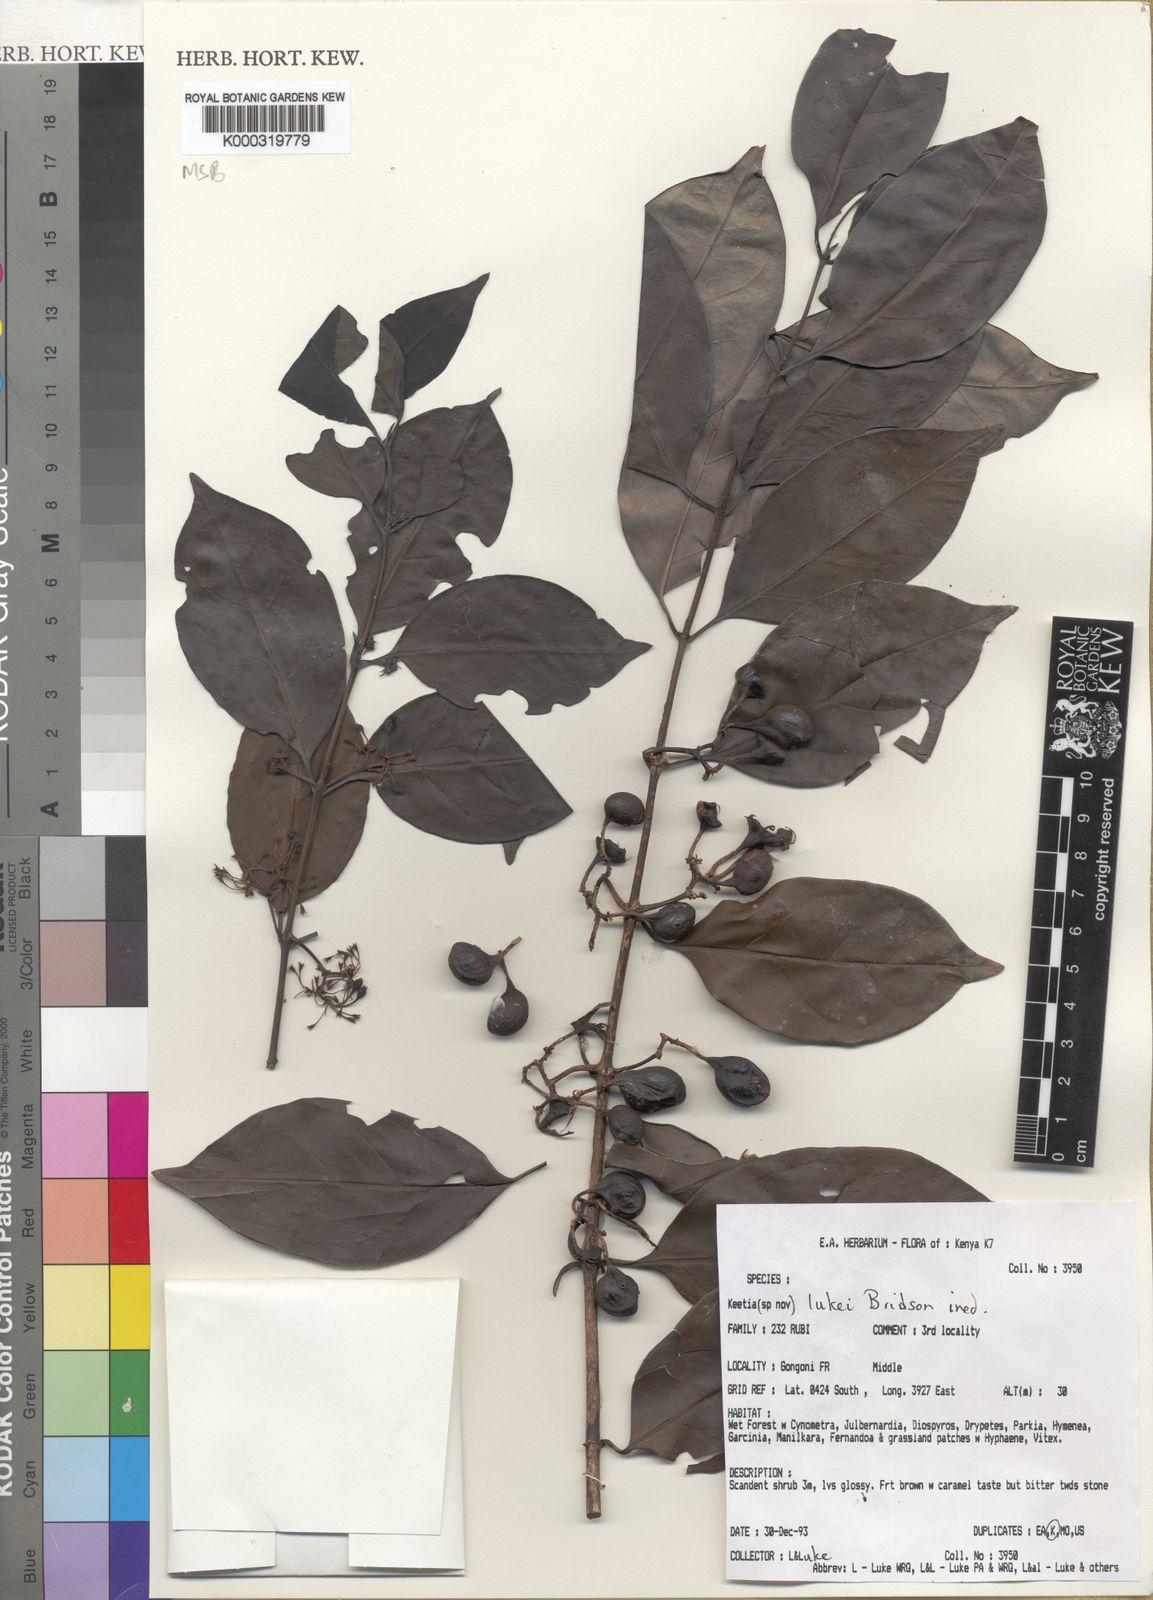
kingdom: Plantae
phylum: Tracheophyta
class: Magnoliopsida
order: Gentianales
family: Rubiaceae
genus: Keetia
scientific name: Keetia lukei
